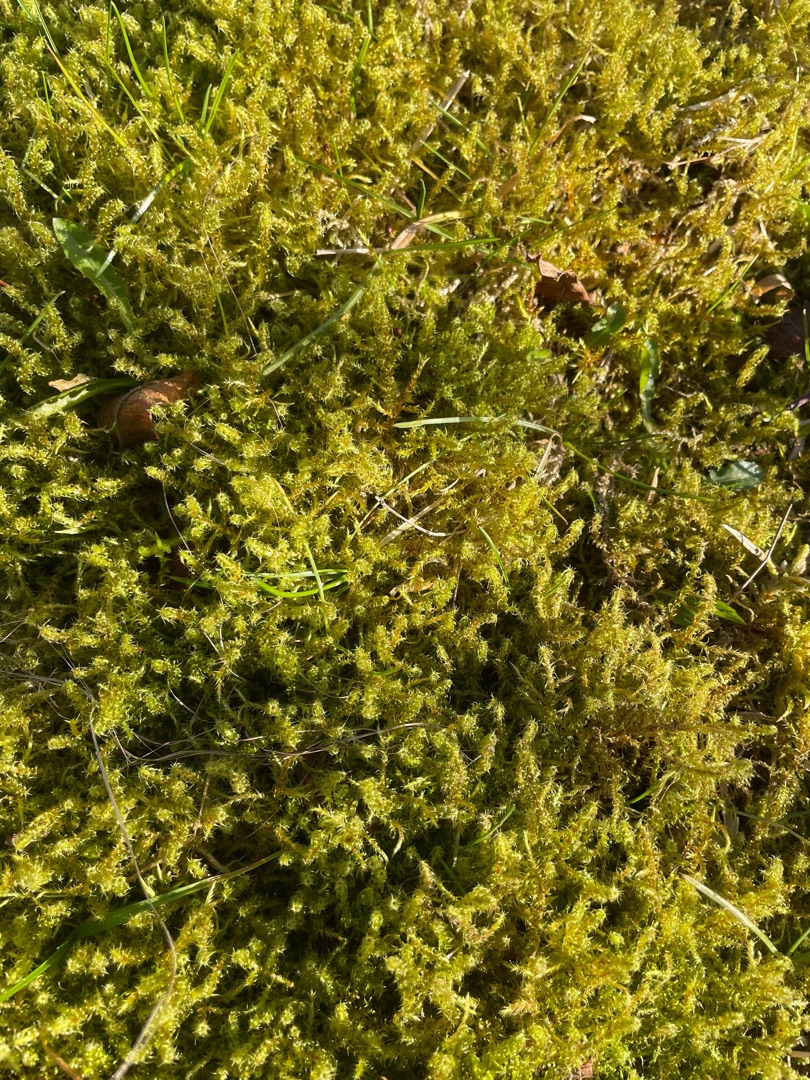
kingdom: Plantae
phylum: Bryophyta
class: Bryopsida
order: Hypnales
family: Hylocomiaceae
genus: Rhytidiadelphus
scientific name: Rhytidiadelphus squarrosus
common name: Plæne-kransemos
